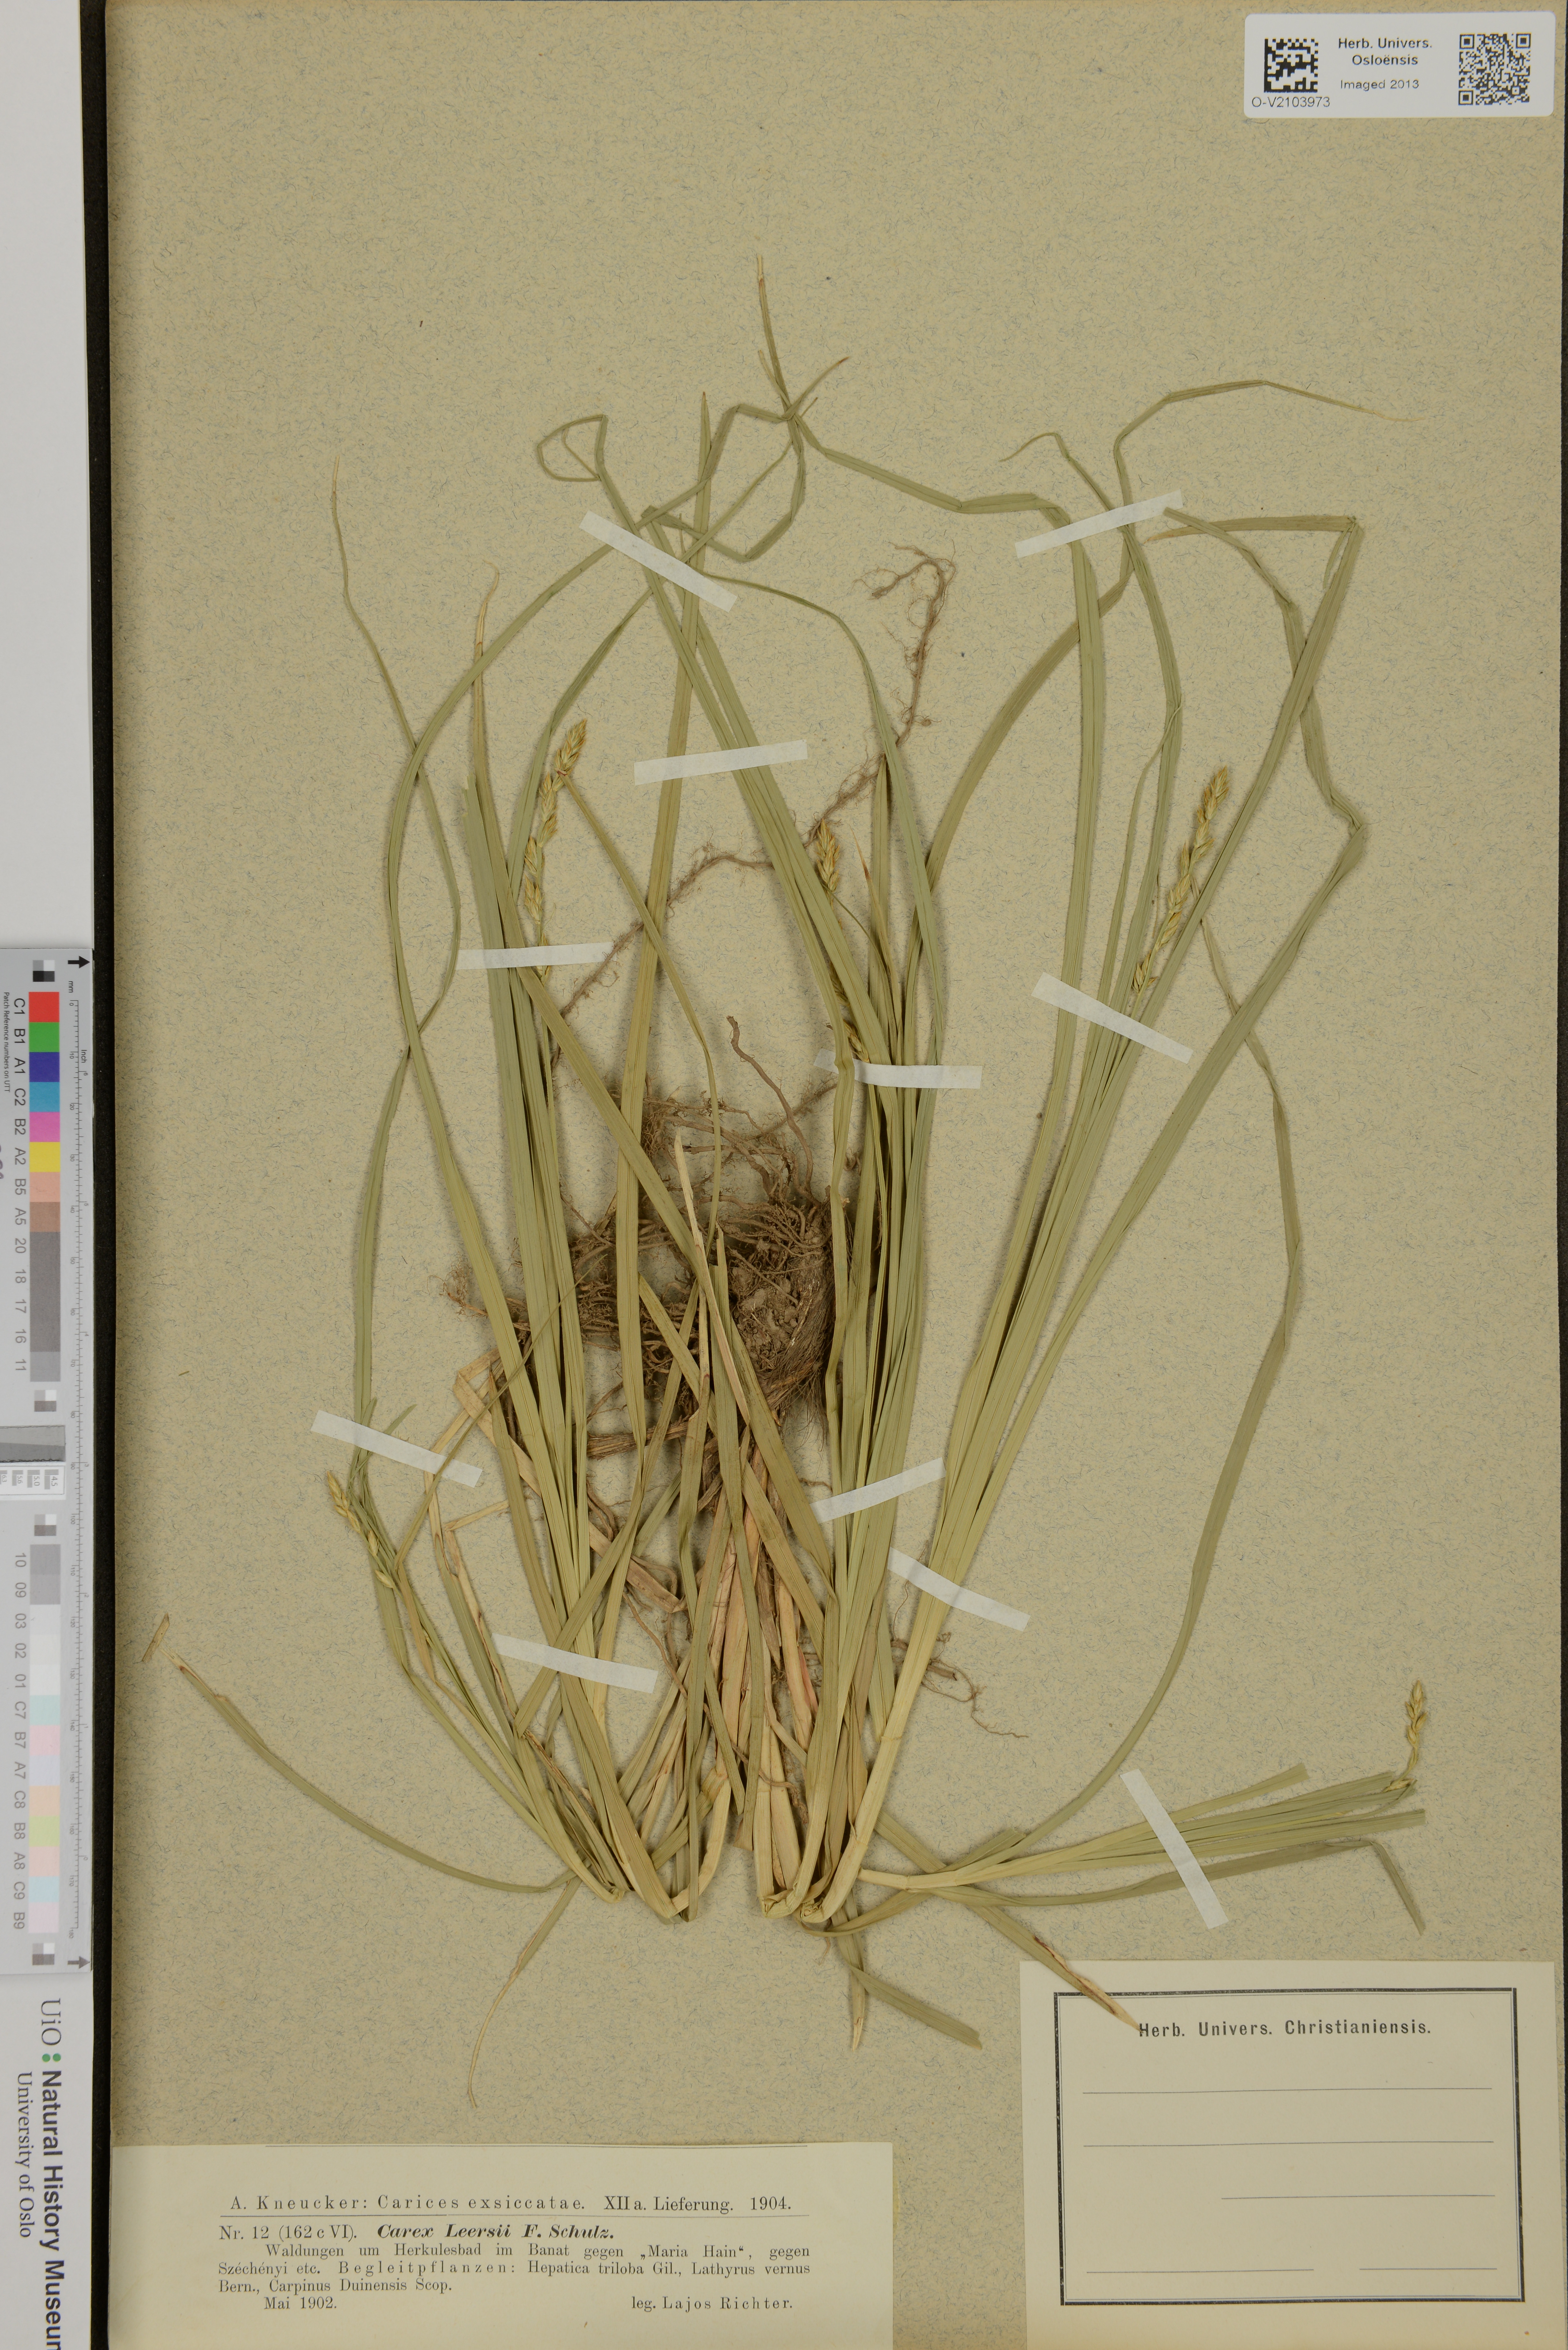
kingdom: Plantae
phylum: Tracheophyta
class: Liliopsida
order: Poales
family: Cyperaceae
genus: Carex
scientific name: Carex leersii
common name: Leers' sedge
